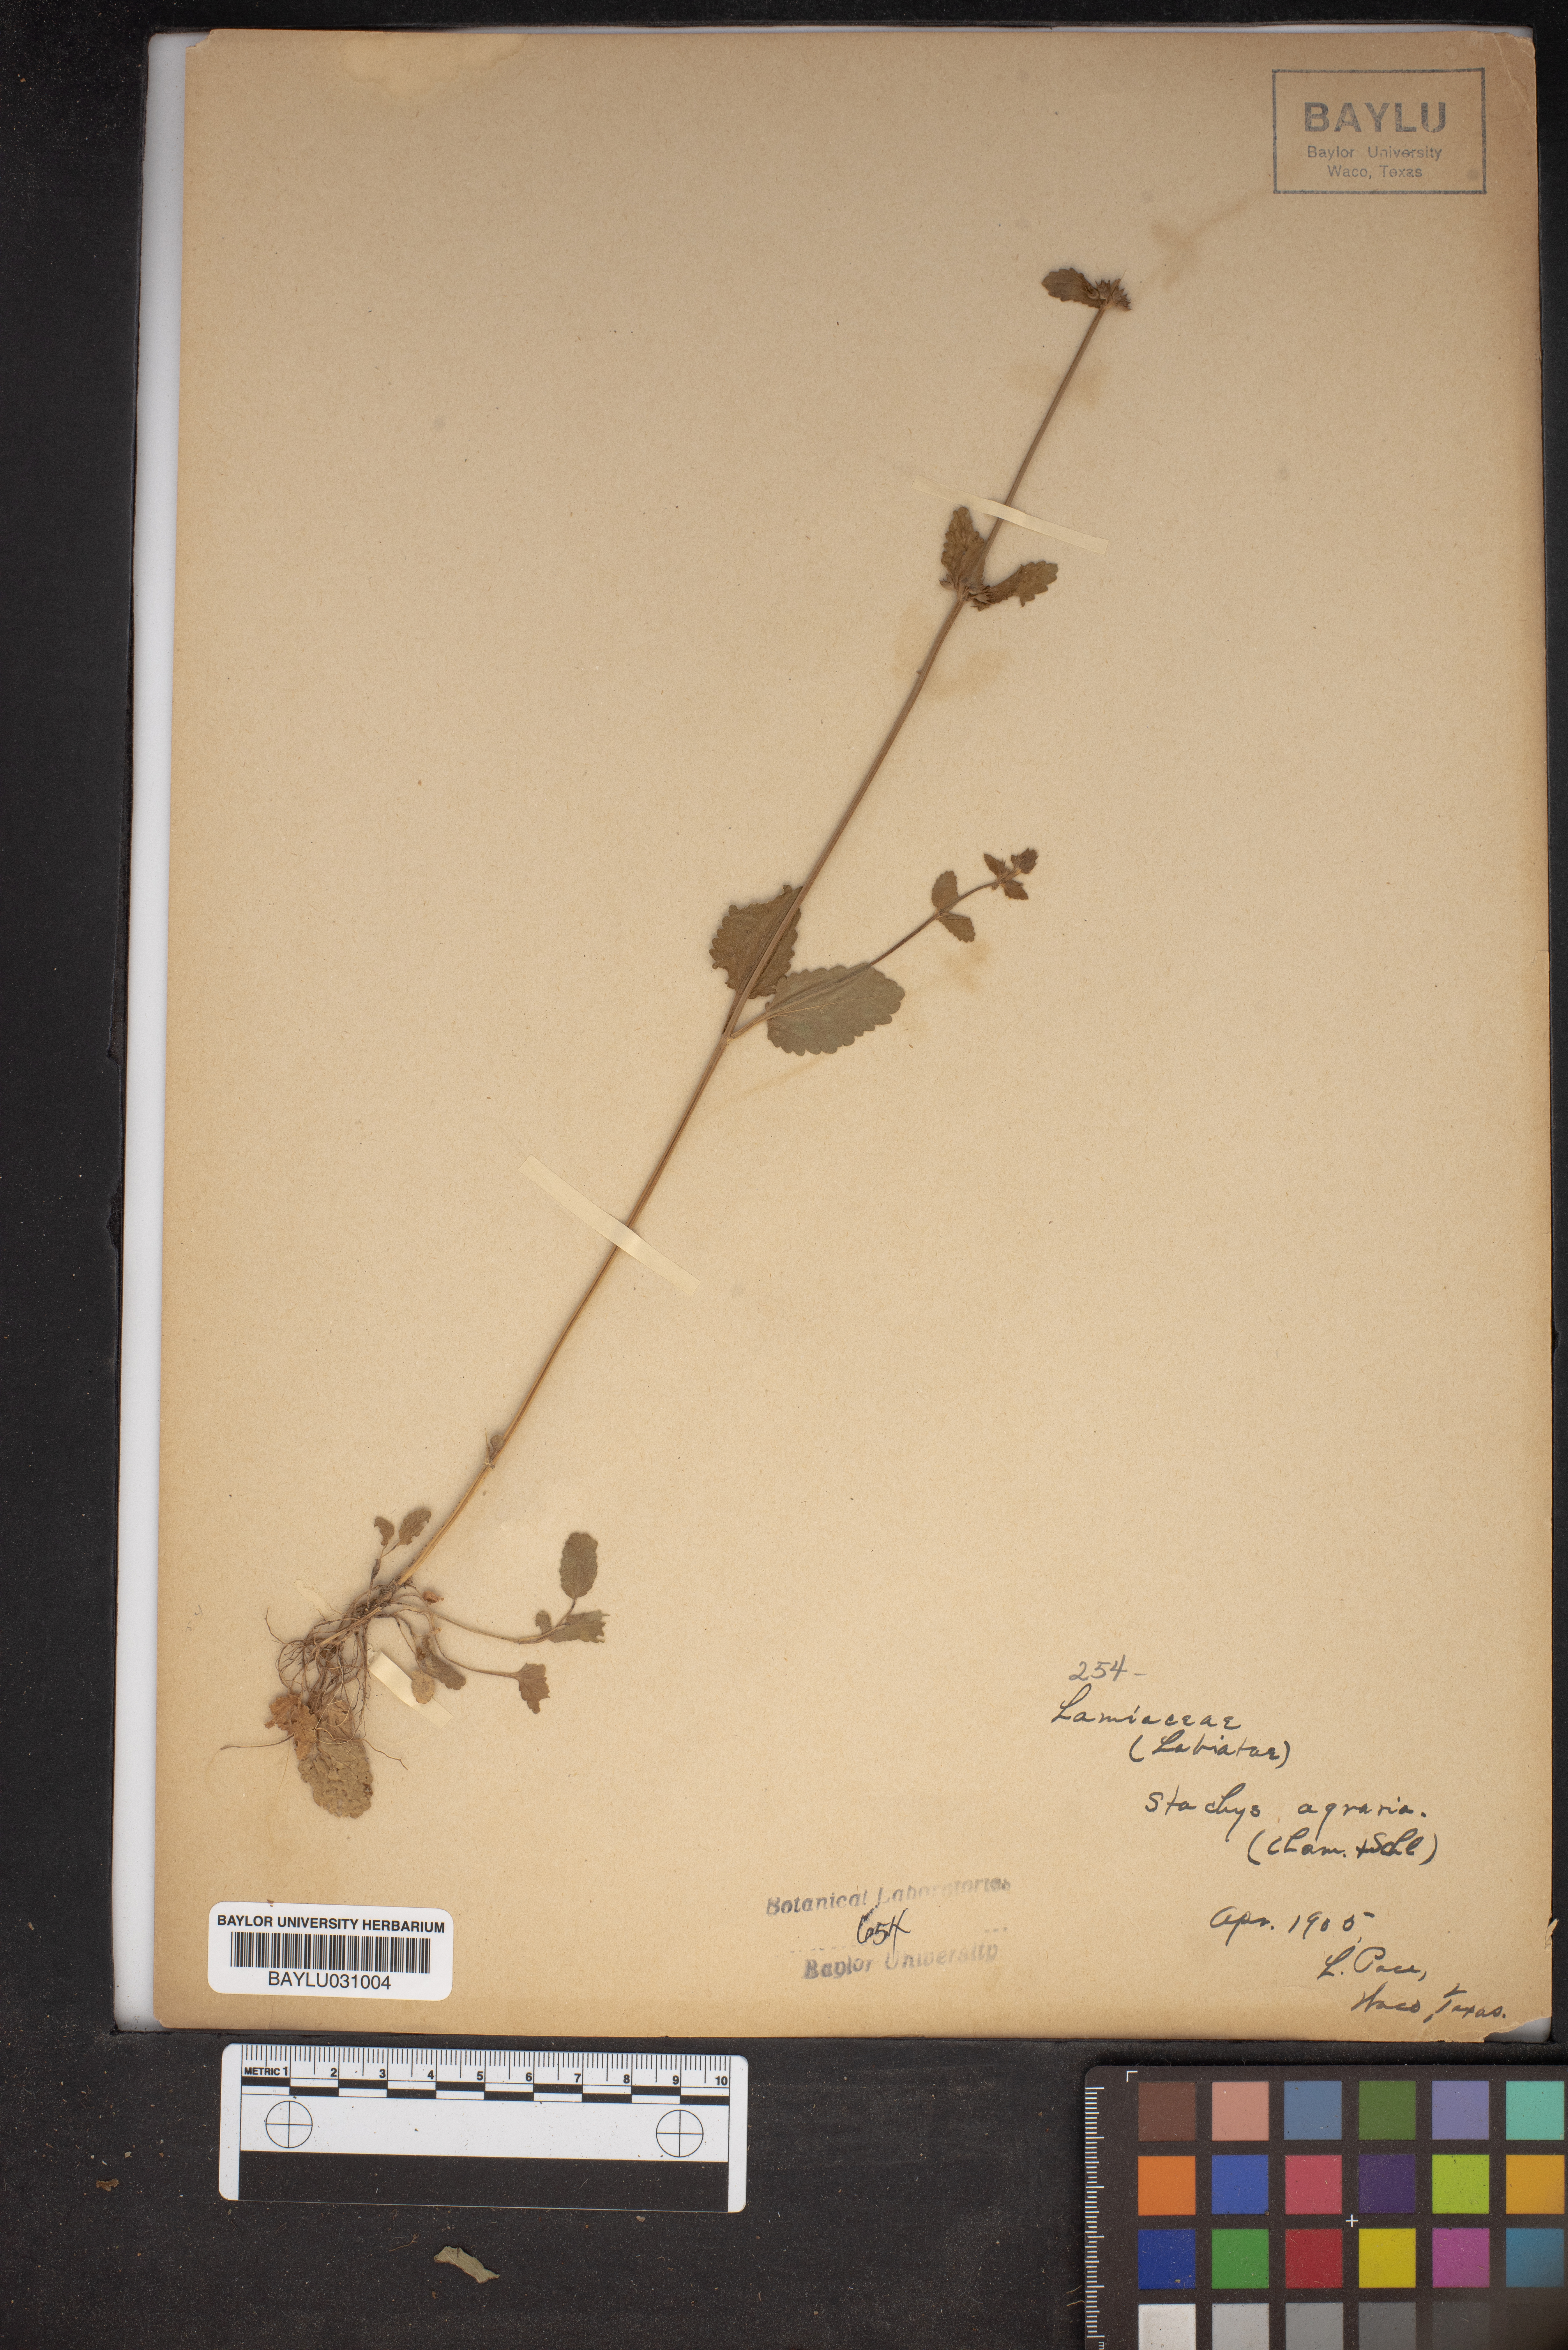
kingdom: Plantae
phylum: Tracheophyta
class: Magnoliopsida
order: Lamiales
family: Lamiaceae
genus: Stachys
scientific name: Stachys agraria
